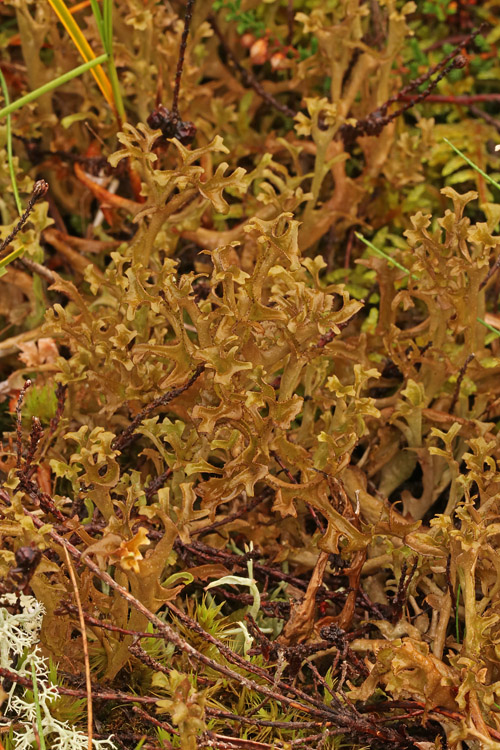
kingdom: Fungi
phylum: Ascomycota
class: Lecanoromycetes
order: Lecanorales
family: Parmeliaceae
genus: Cetraria
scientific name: Cetraria islandica
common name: islandsk kruslav
